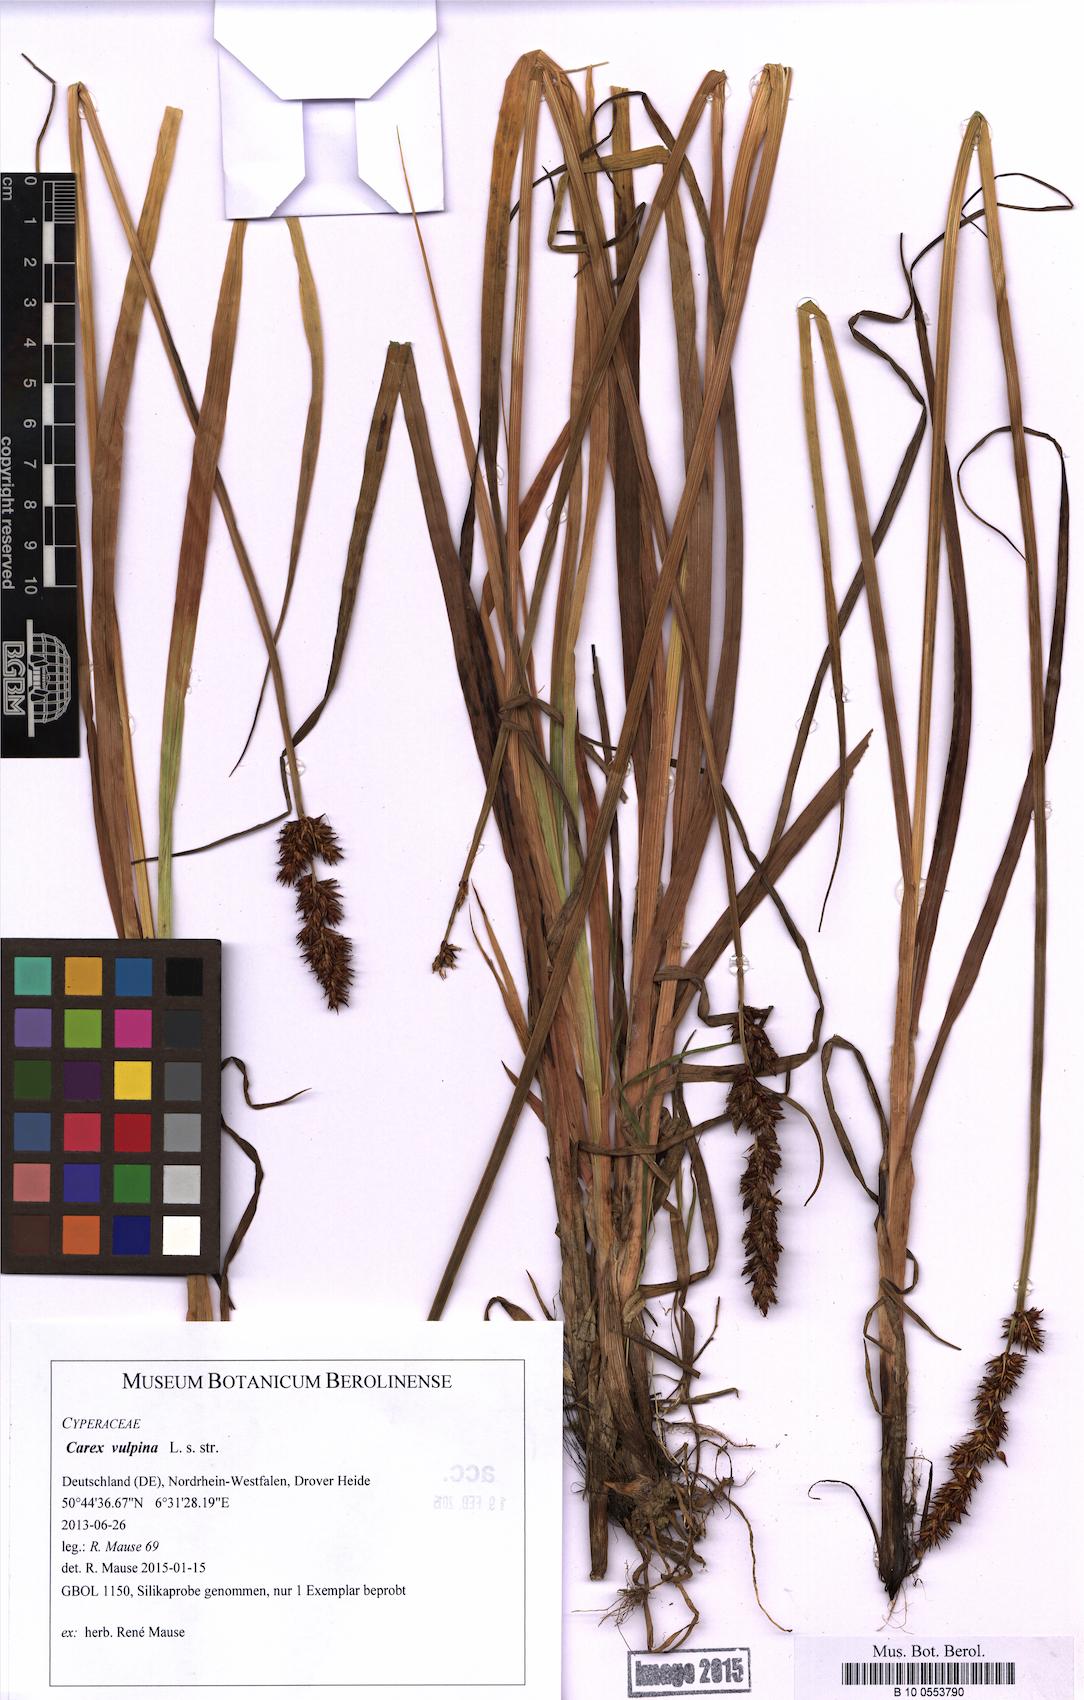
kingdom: Plantae
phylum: Tracheophyta
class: Liliopsida
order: Poales
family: Cyperaceae
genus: Carex
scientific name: Carex vulpina
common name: True fox-sedge
